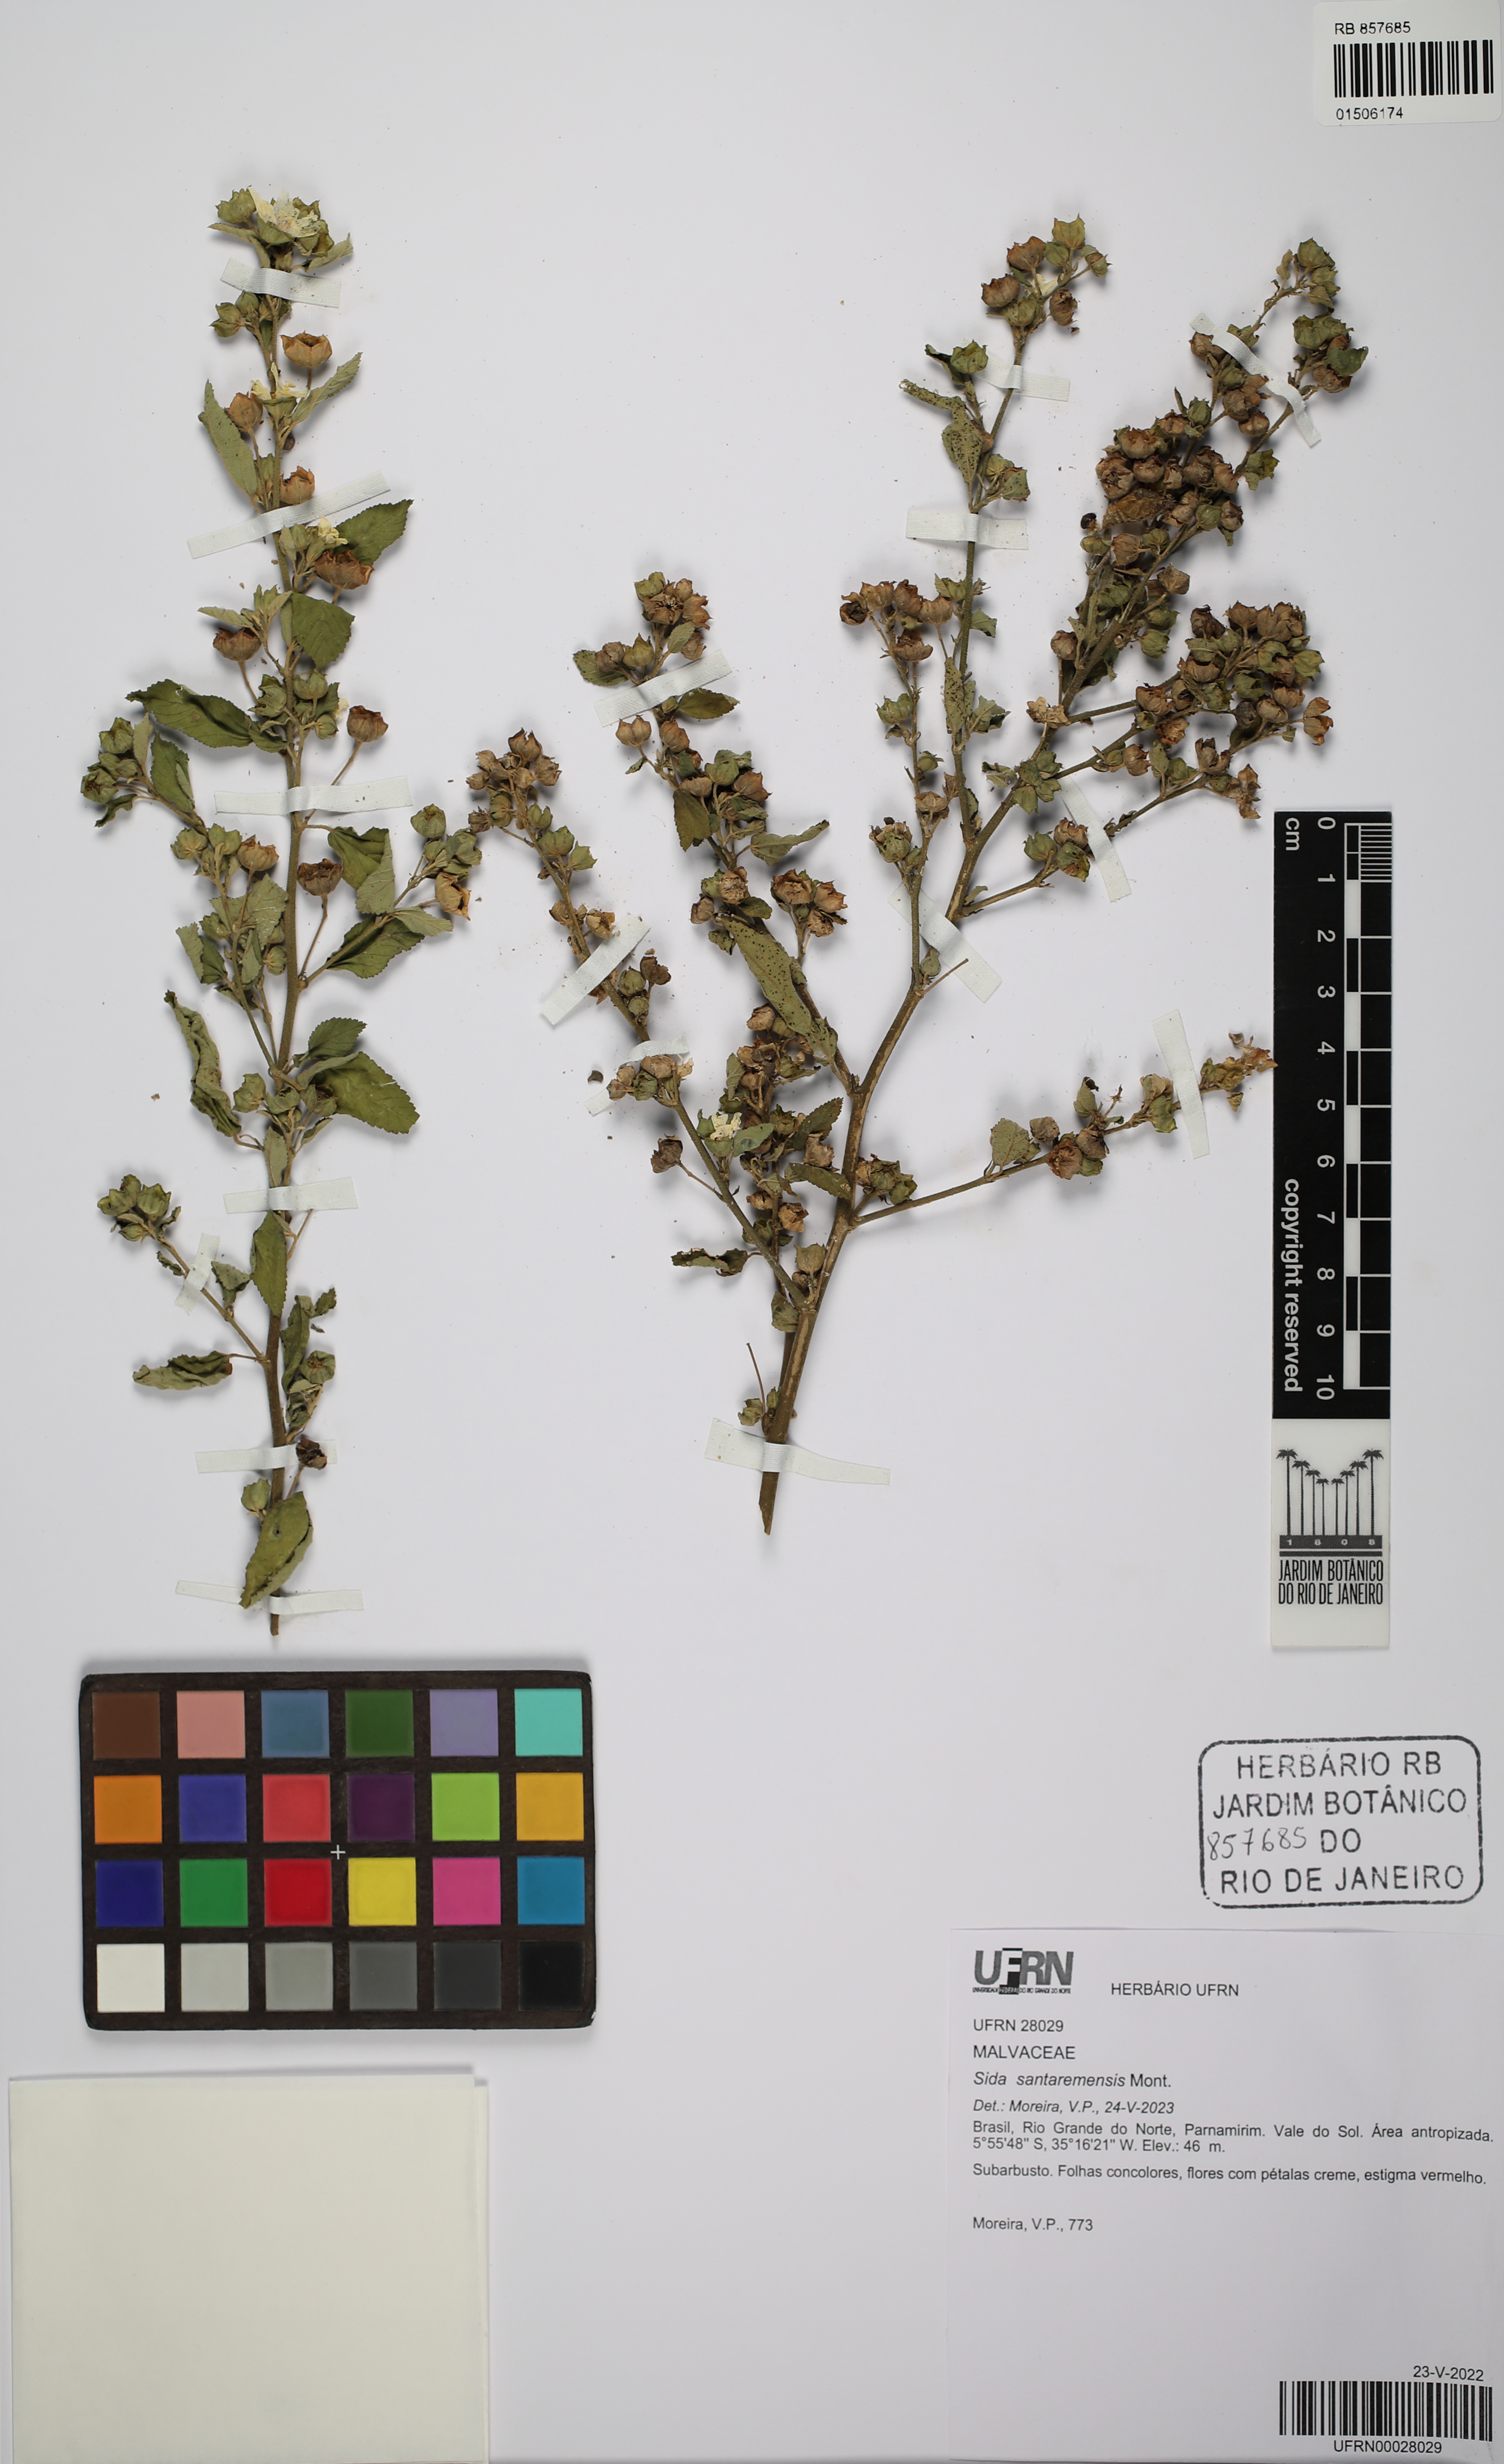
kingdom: Plantae
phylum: Tracheophyta
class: Magnoliopsida
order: Malvales
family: Malvaceae
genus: Sida
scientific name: Sida santaremensis
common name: Moth fanpetals
